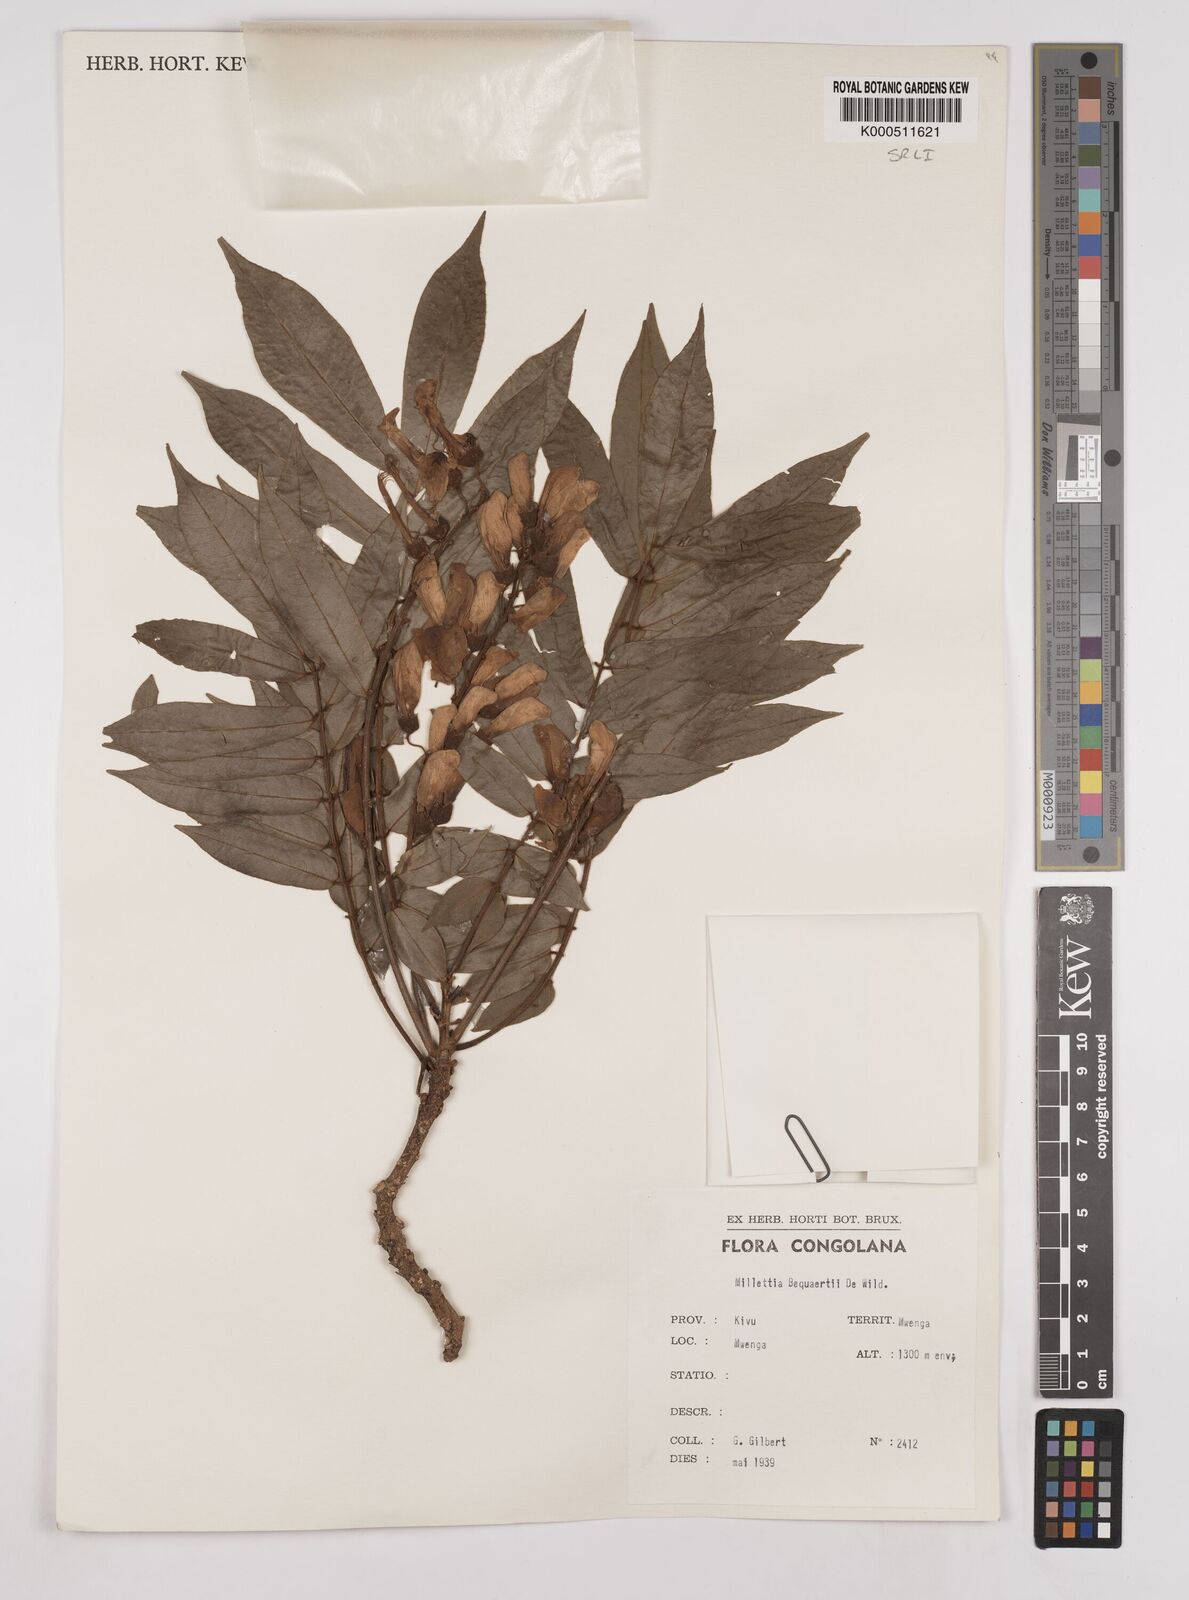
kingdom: Plantae
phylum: Tracheophyta
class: Magnoliopsida
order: Fabales
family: Fabaceae
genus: Millettia
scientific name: Millettia bequaertii
